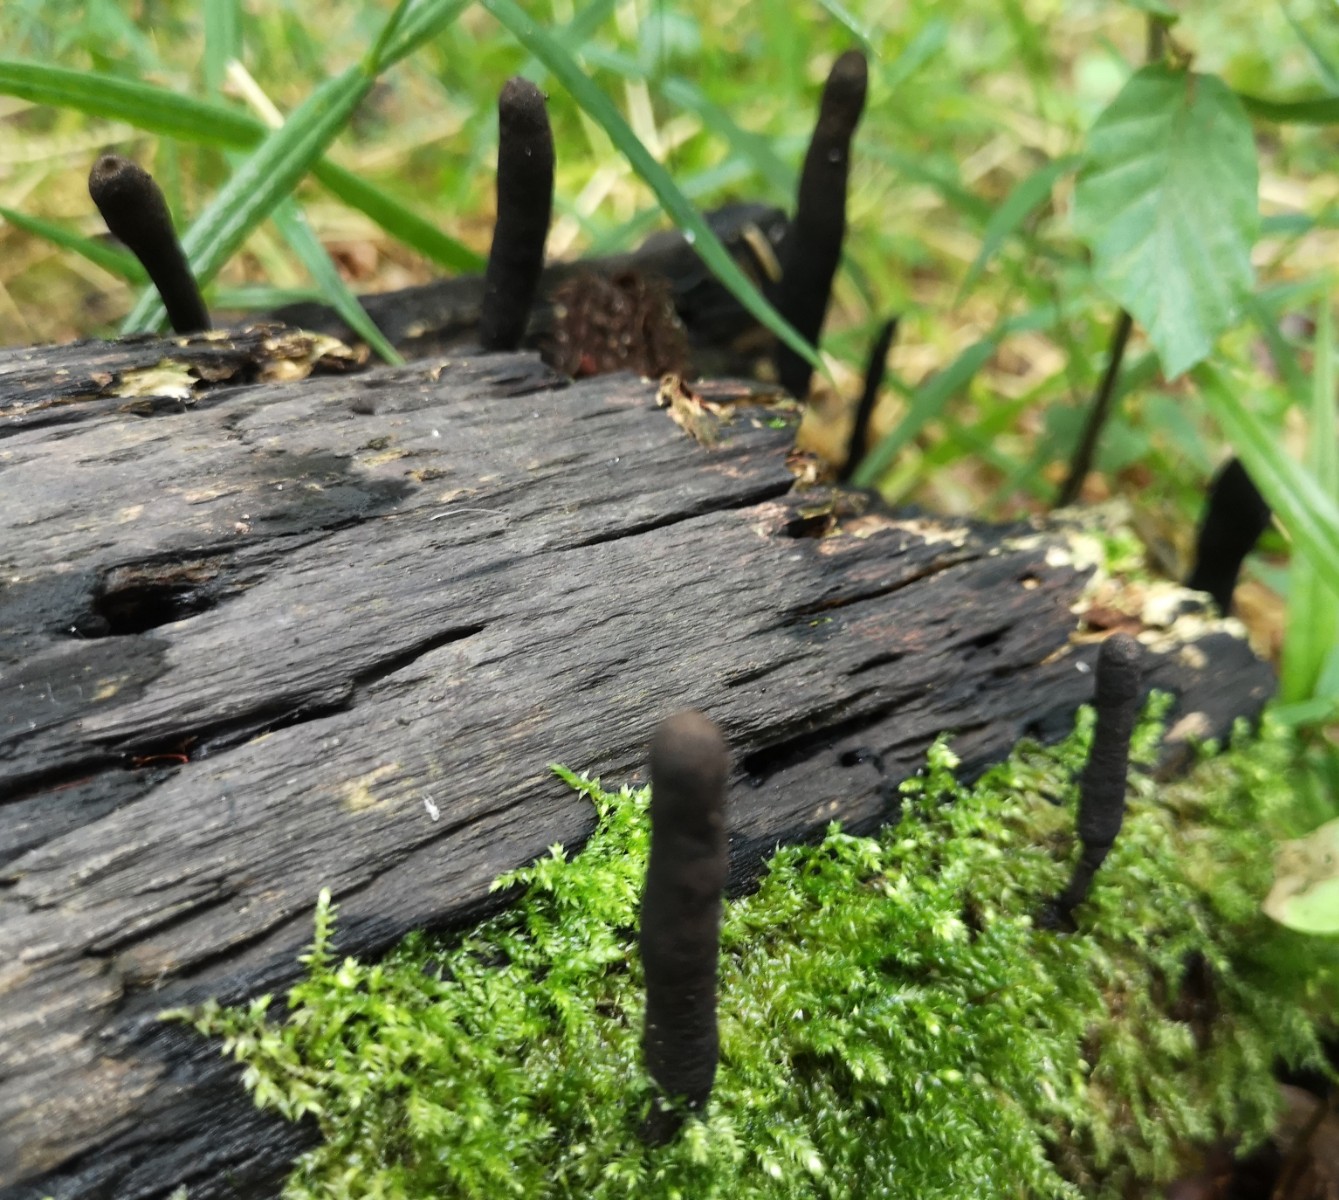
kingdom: Fungi
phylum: Ascomycota
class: Sordariomycetes
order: Xylariales
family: Xylariaceae
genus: Xylaria
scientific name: Xylaria longipes
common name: slank stødsvamp
